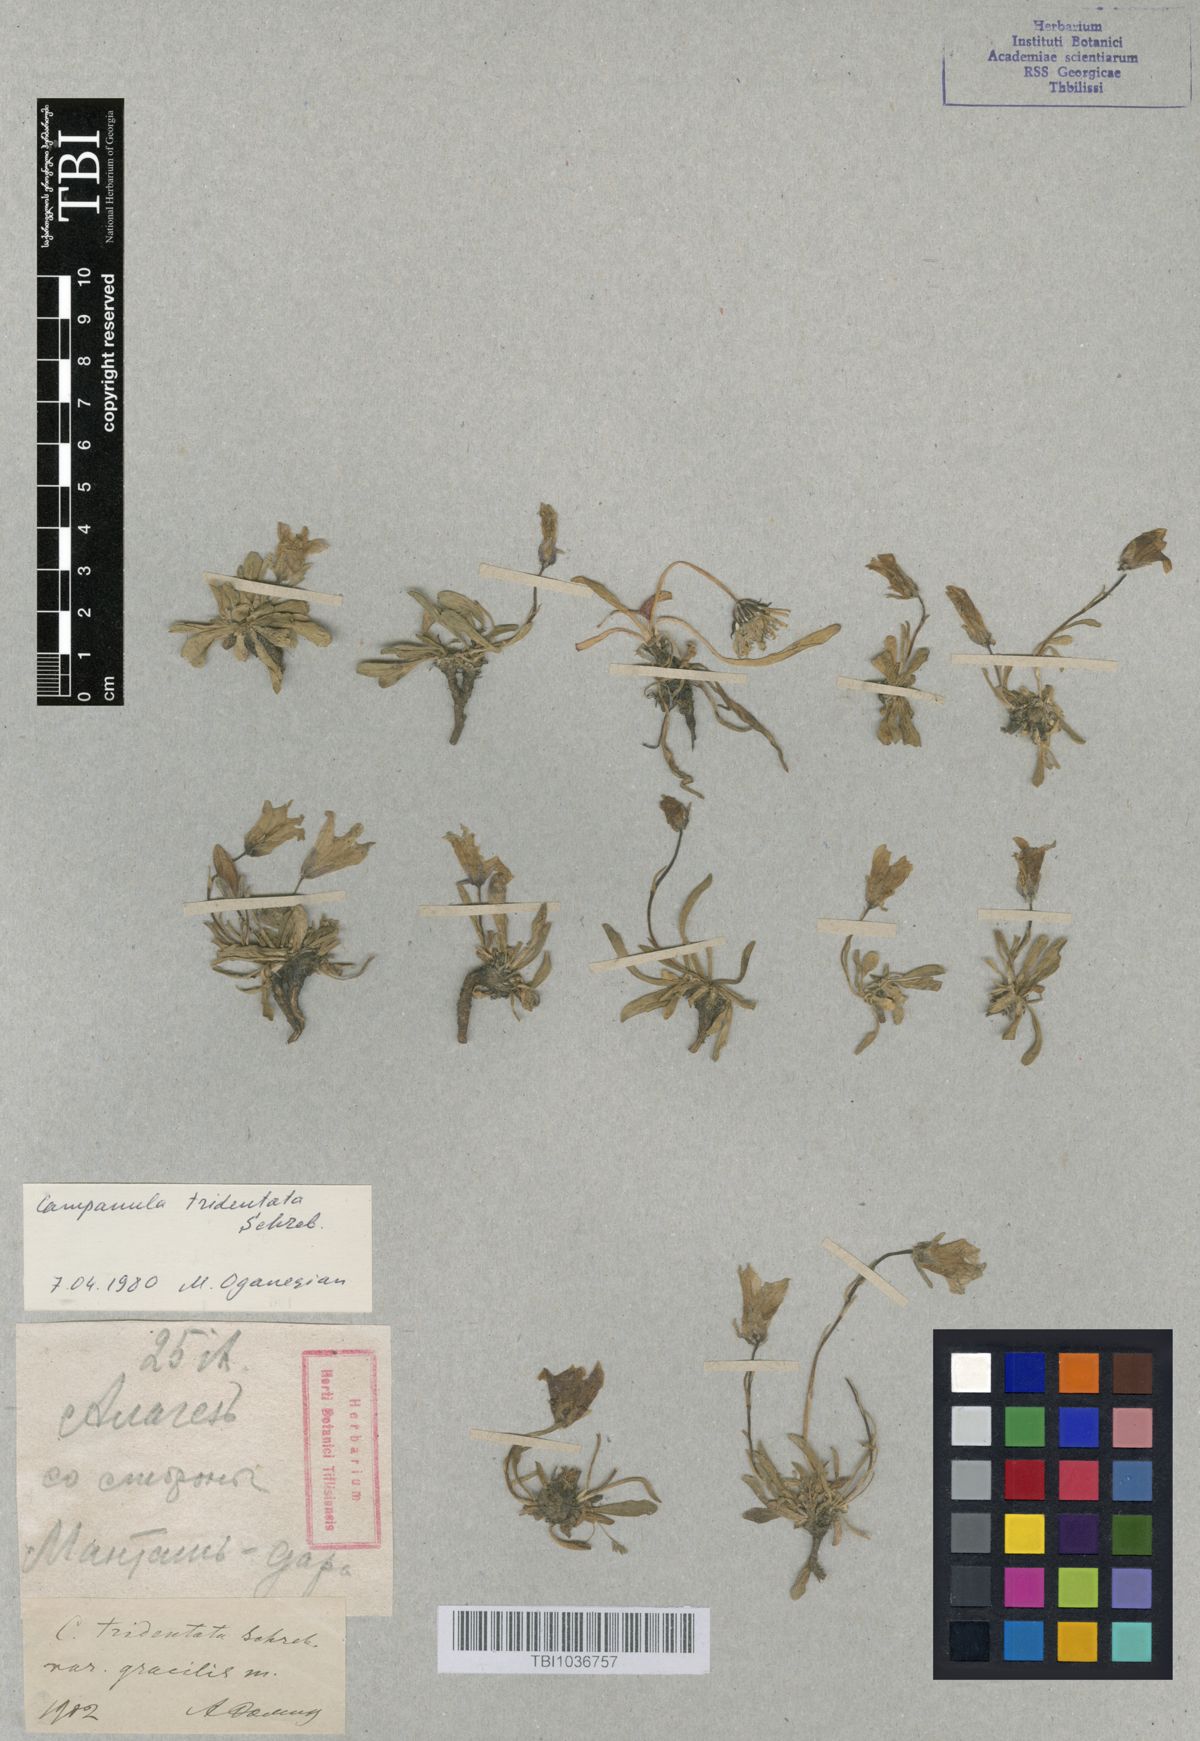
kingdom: Plantae
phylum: Tracheophyta
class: Magnoliopsida
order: Asterales
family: Campanulaceae
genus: Campanula
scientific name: Campanula tridentata
